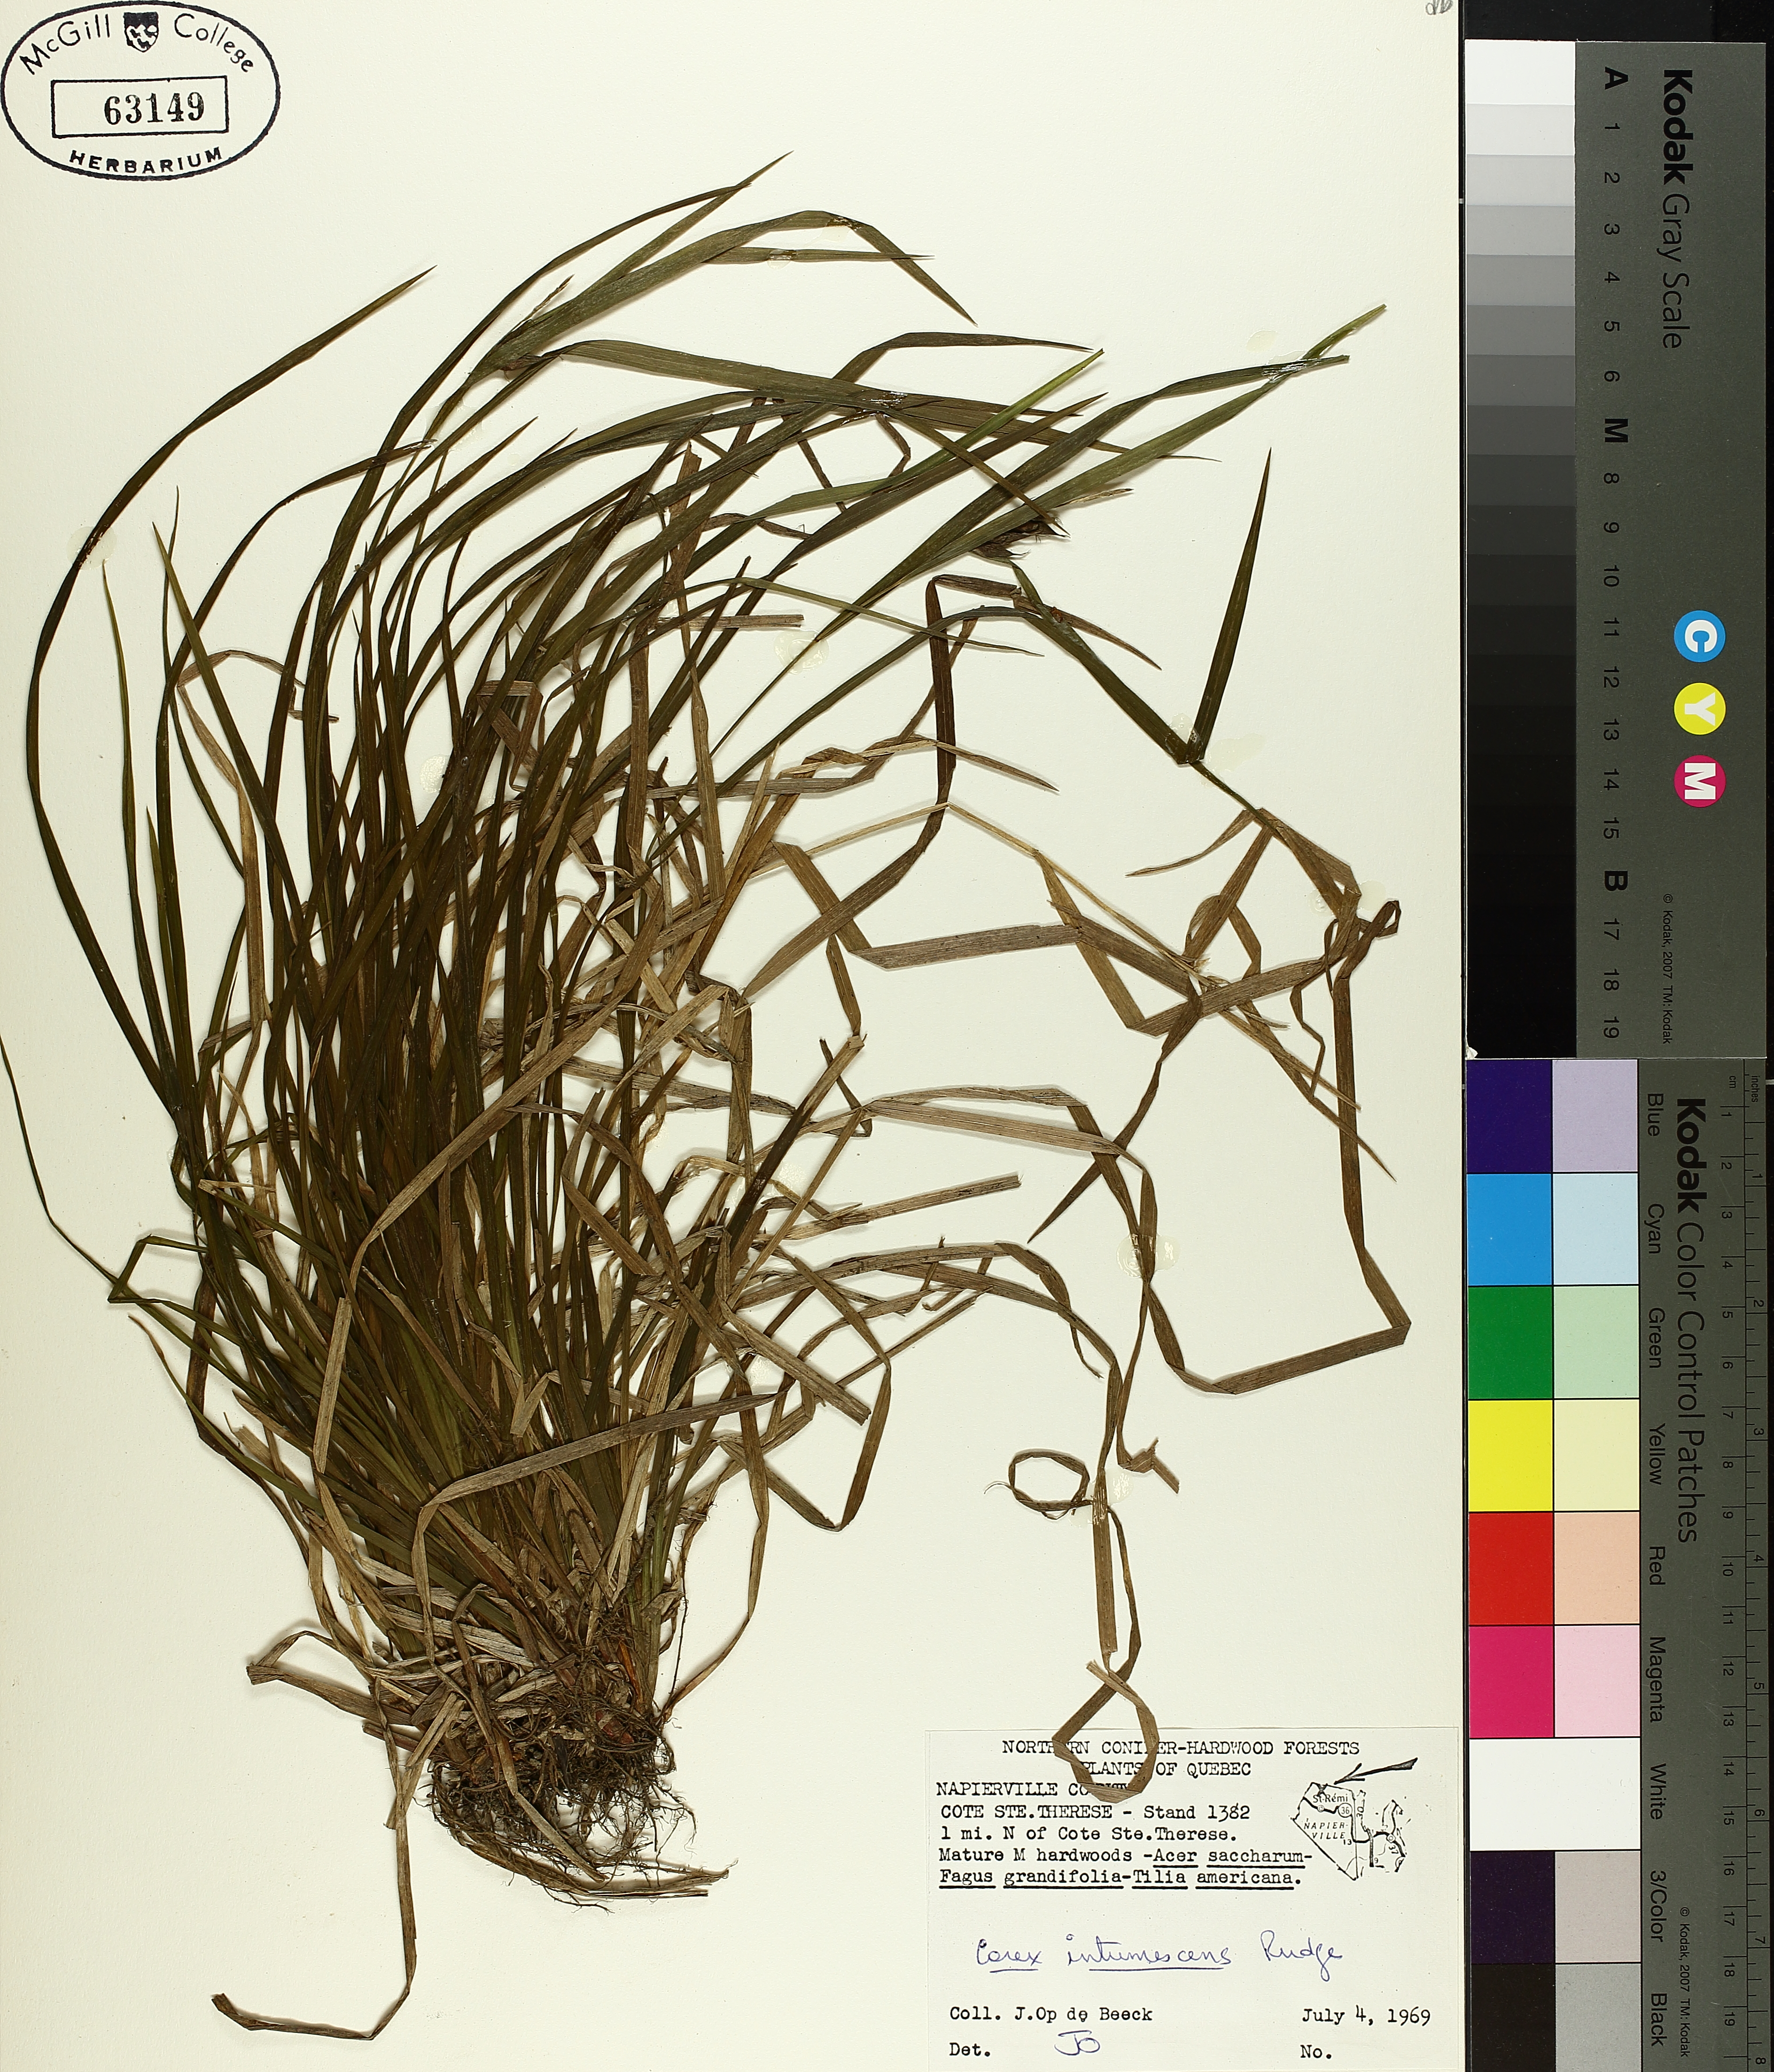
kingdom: Plantae
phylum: Tracheophyta
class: Liliopsida
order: Poales
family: Cyperaceae
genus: Carex
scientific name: Carex intumescens
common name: Greater bladder sedge
